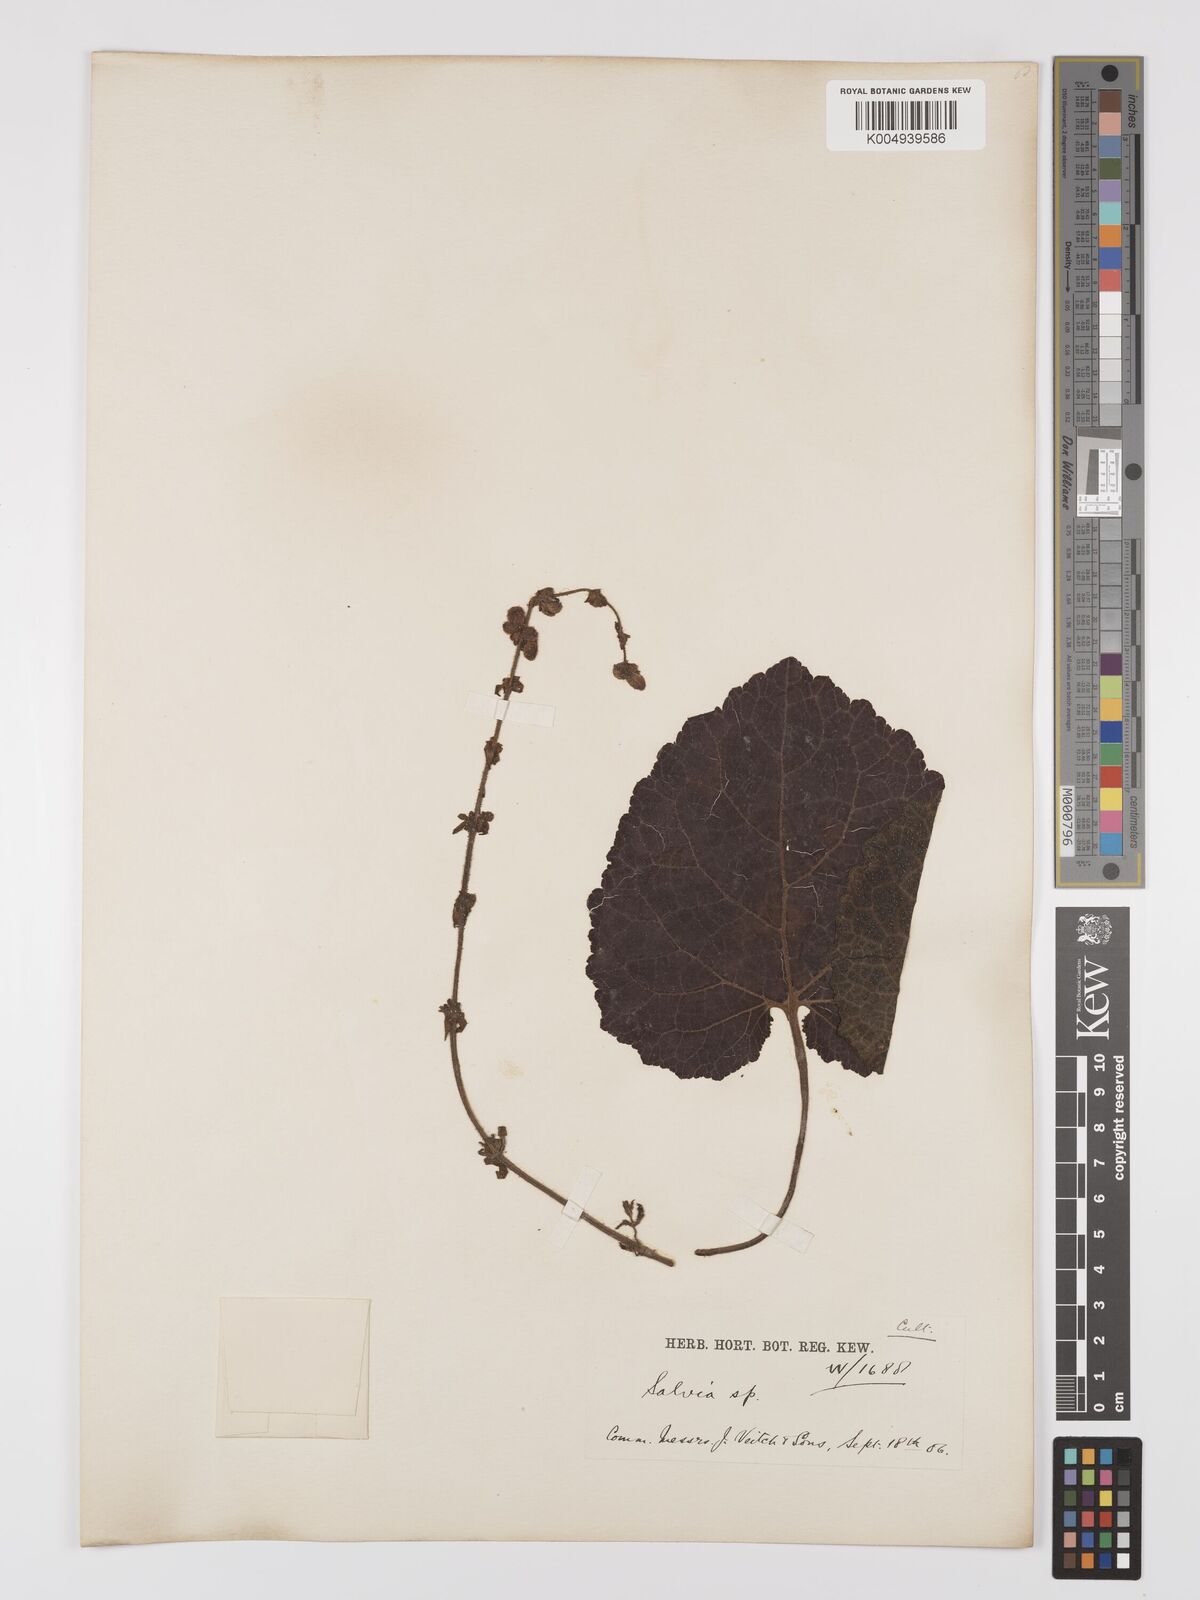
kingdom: Plantae
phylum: Tracheophyta
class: Magnoliopsida
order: Lamiales
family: Lamiaceae
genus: Salvia
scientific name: Salvia
